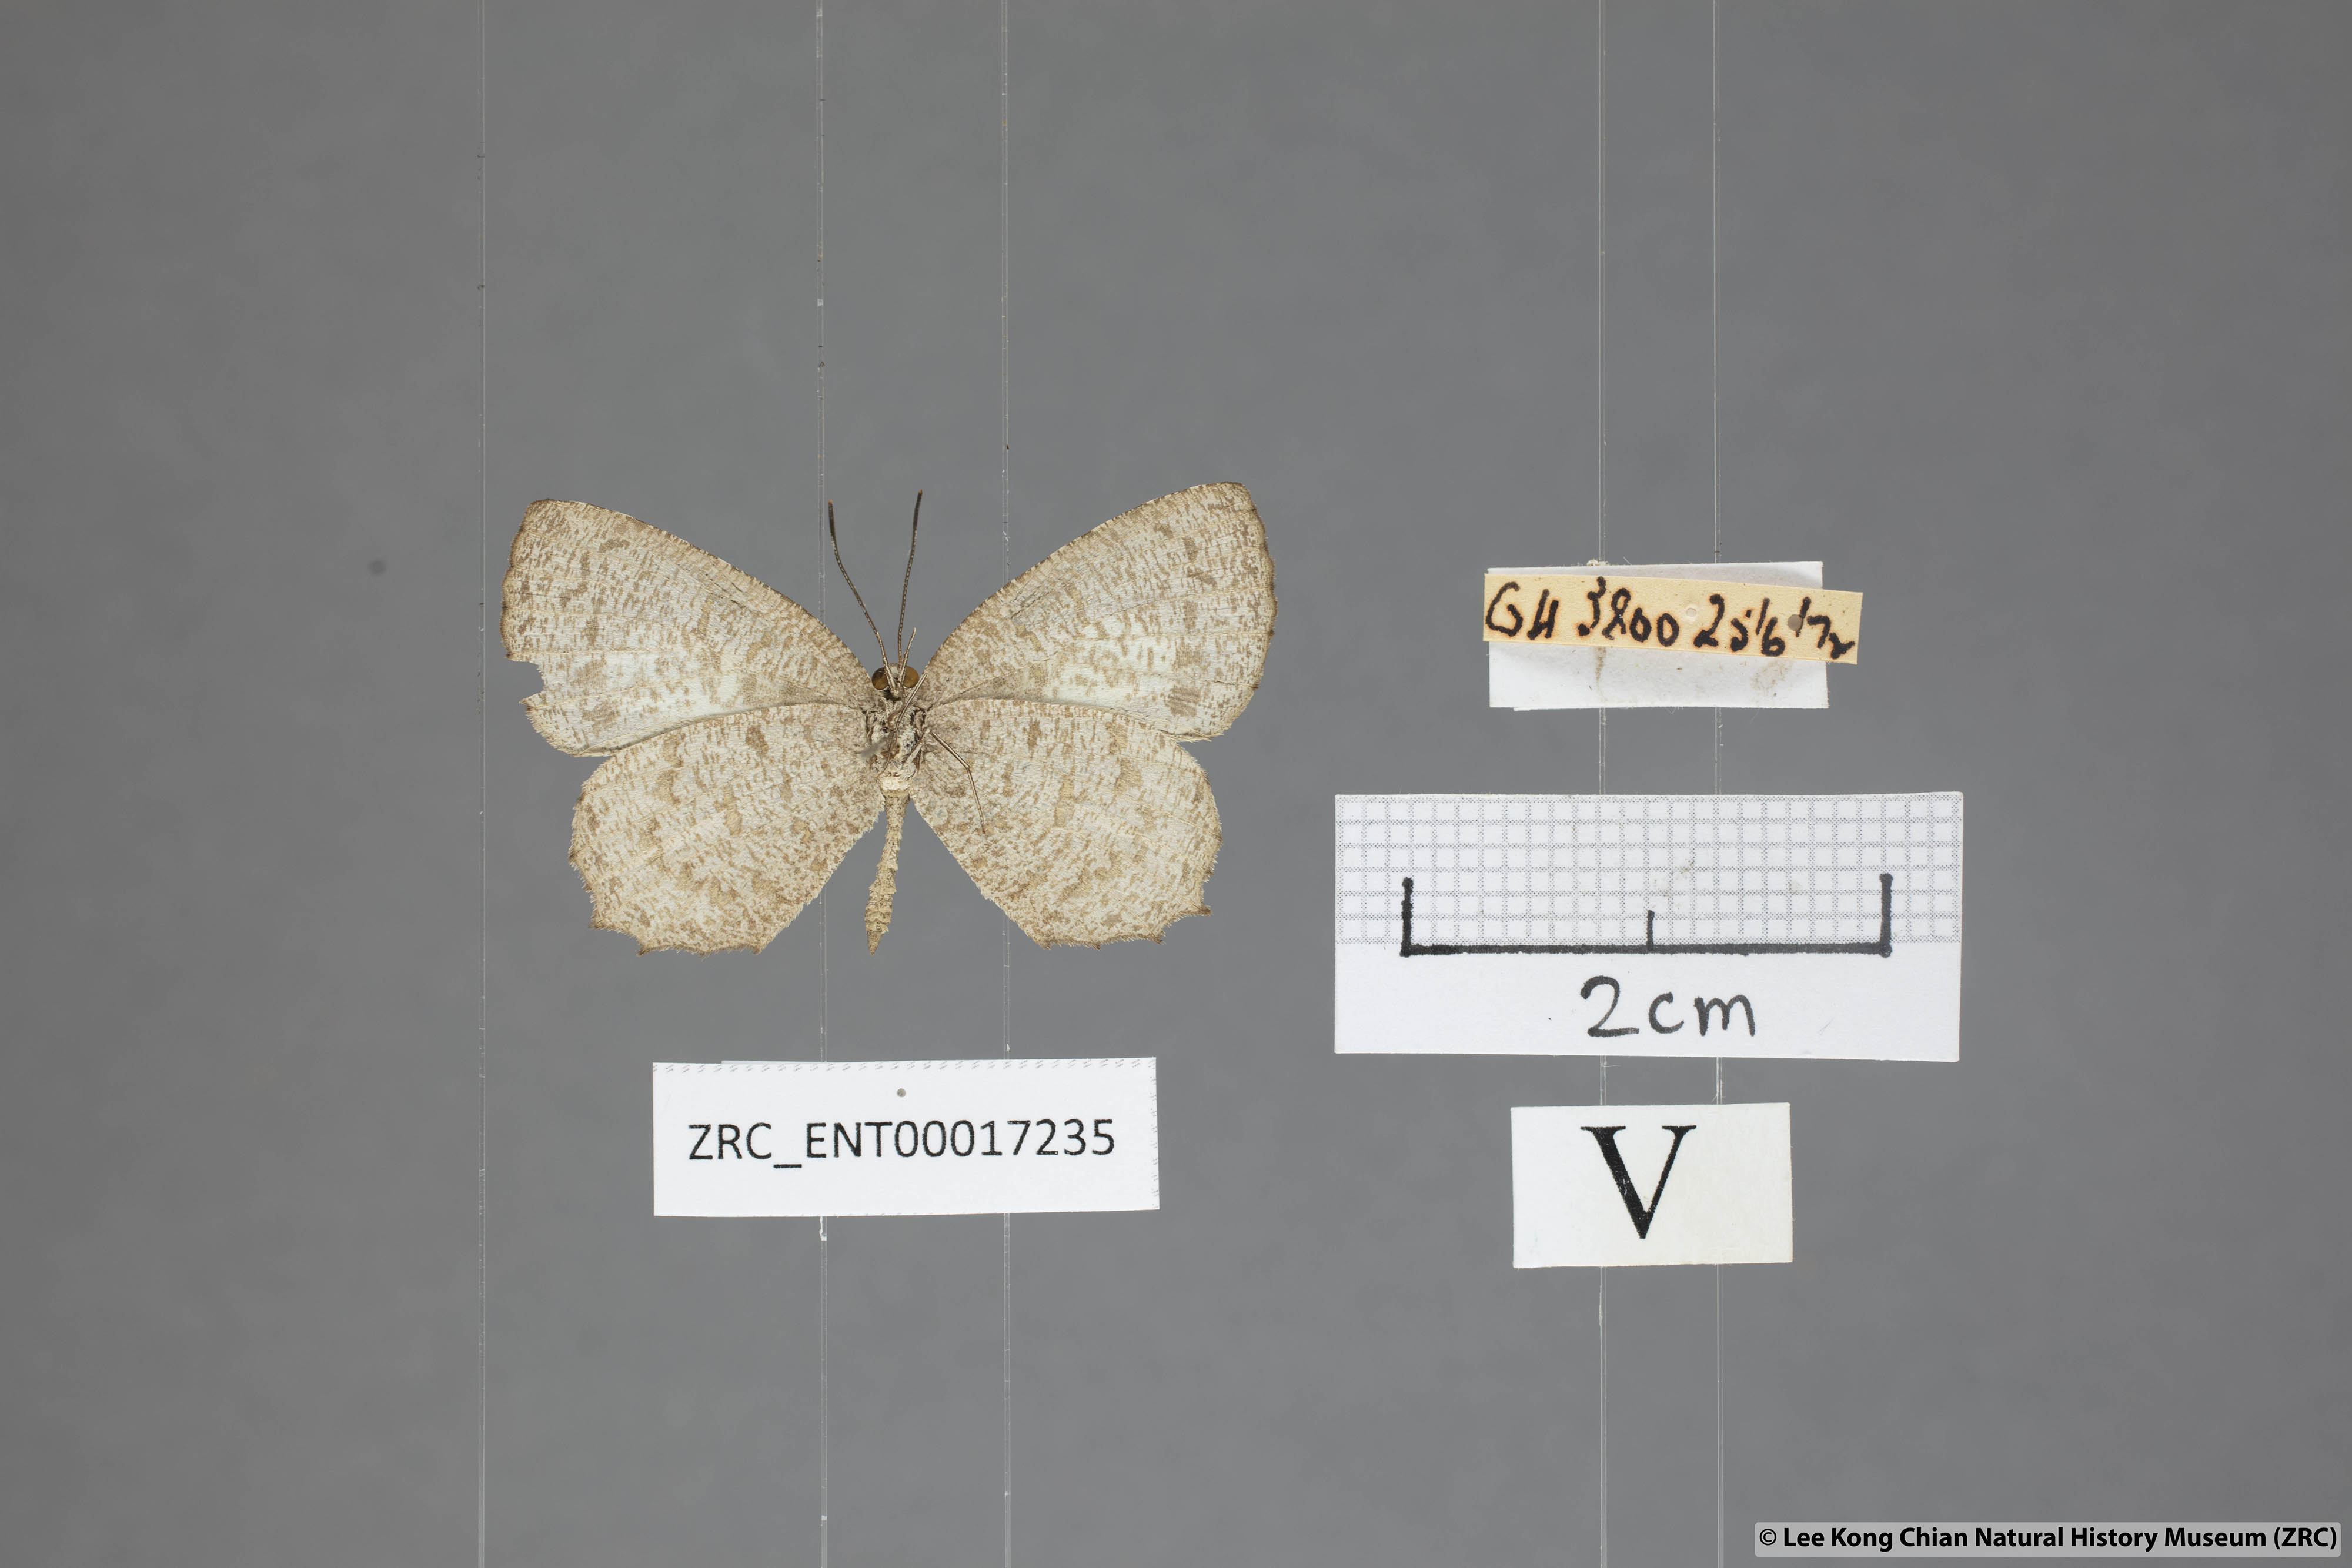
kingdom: Animalia
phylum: Arthropoda
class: Insecta
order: Lepidoptera
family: Lycaenidae
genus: Allotinus
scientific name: Allotinus fallax
